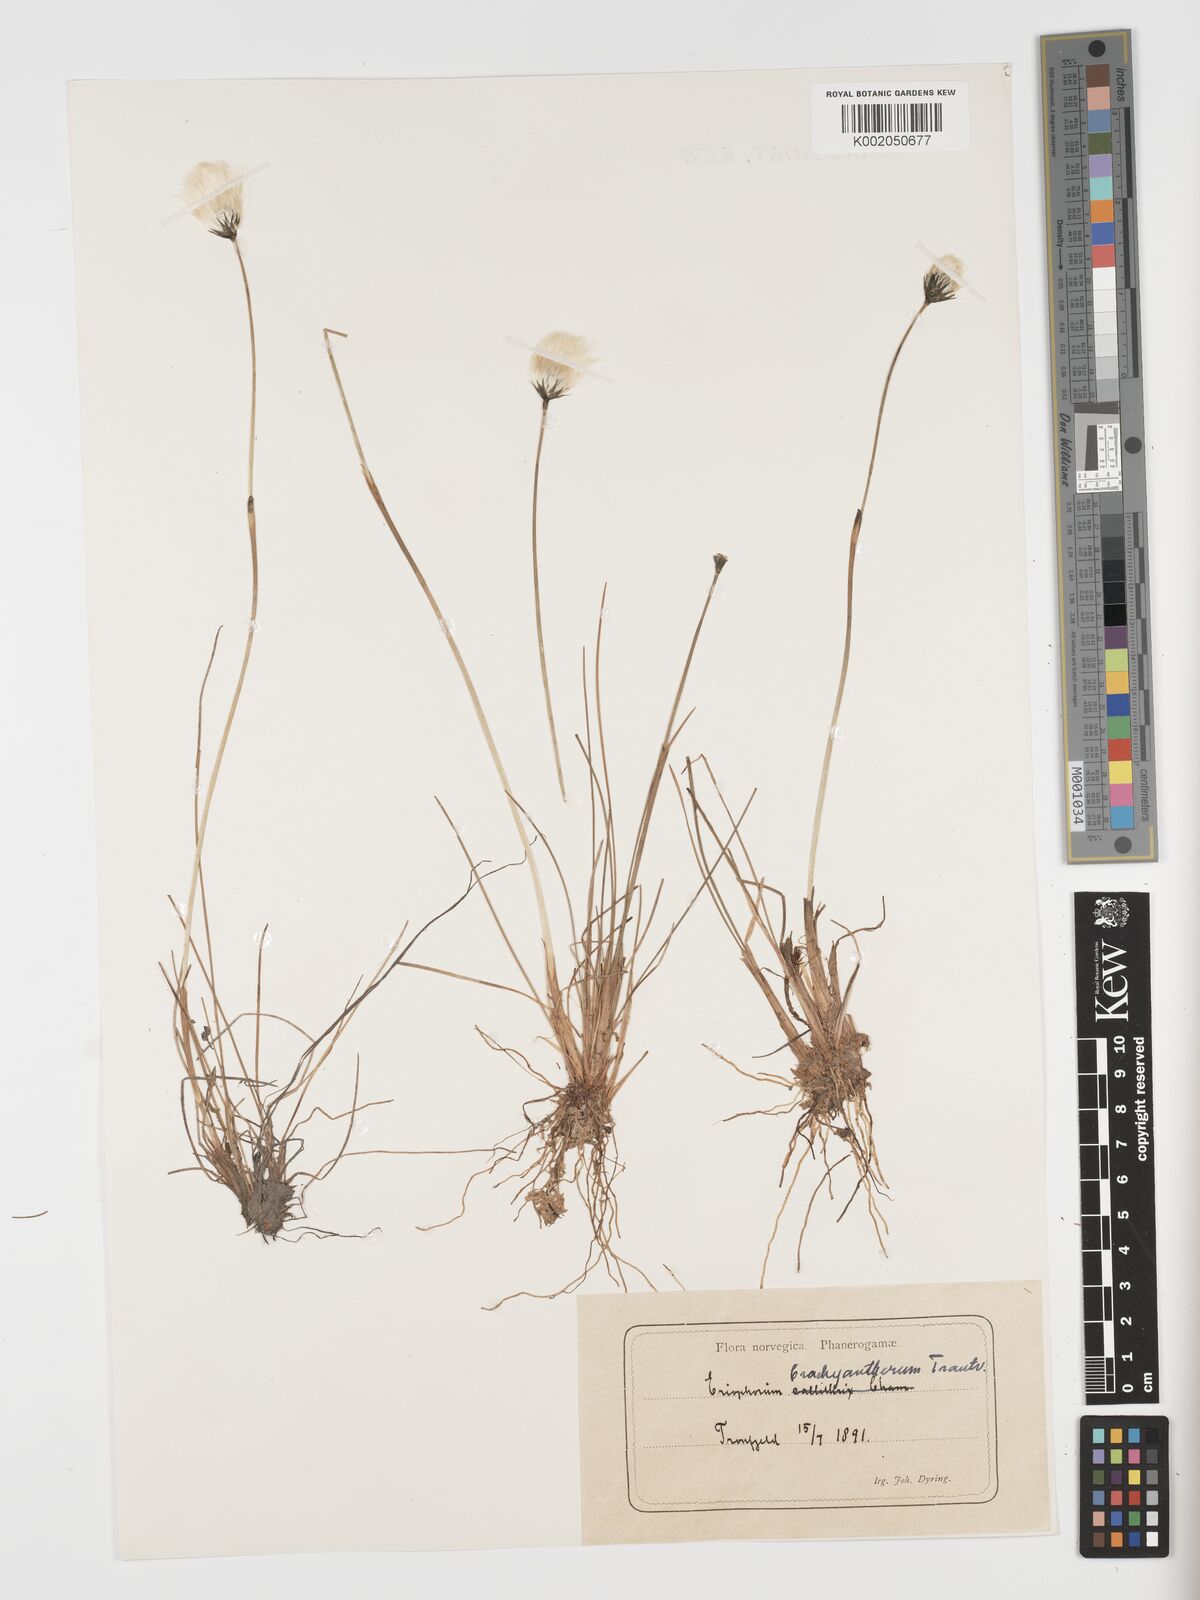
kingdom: Plantae
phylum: Tracheophyta
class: Liliopsida
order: Poales
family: Cyperaceae
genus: Eriophorum
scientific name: Eriophorum vaginatum
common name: Hare's-tail cottongrass
